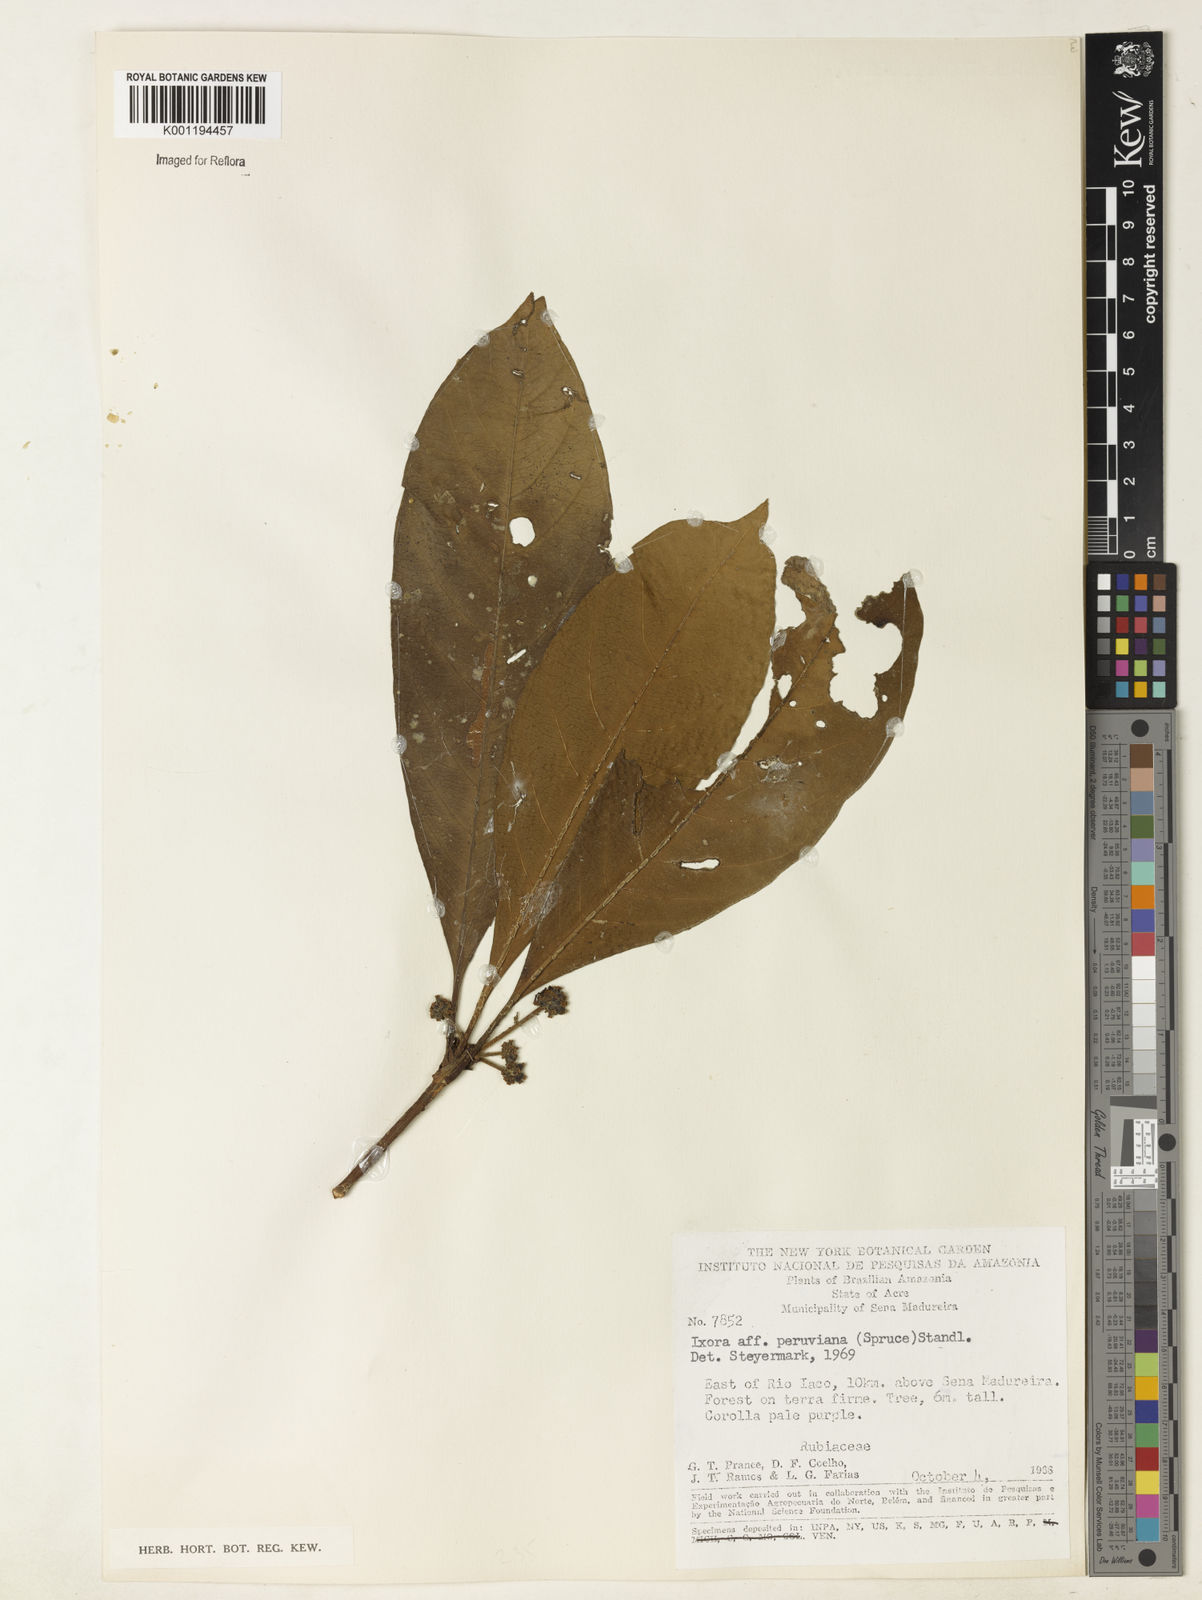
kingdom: Plantae
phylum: Tracheophyta
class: Magnoliopsida
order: Gentianales
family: Rubiaceae
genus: Ixora
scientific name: Ixora peruviana
